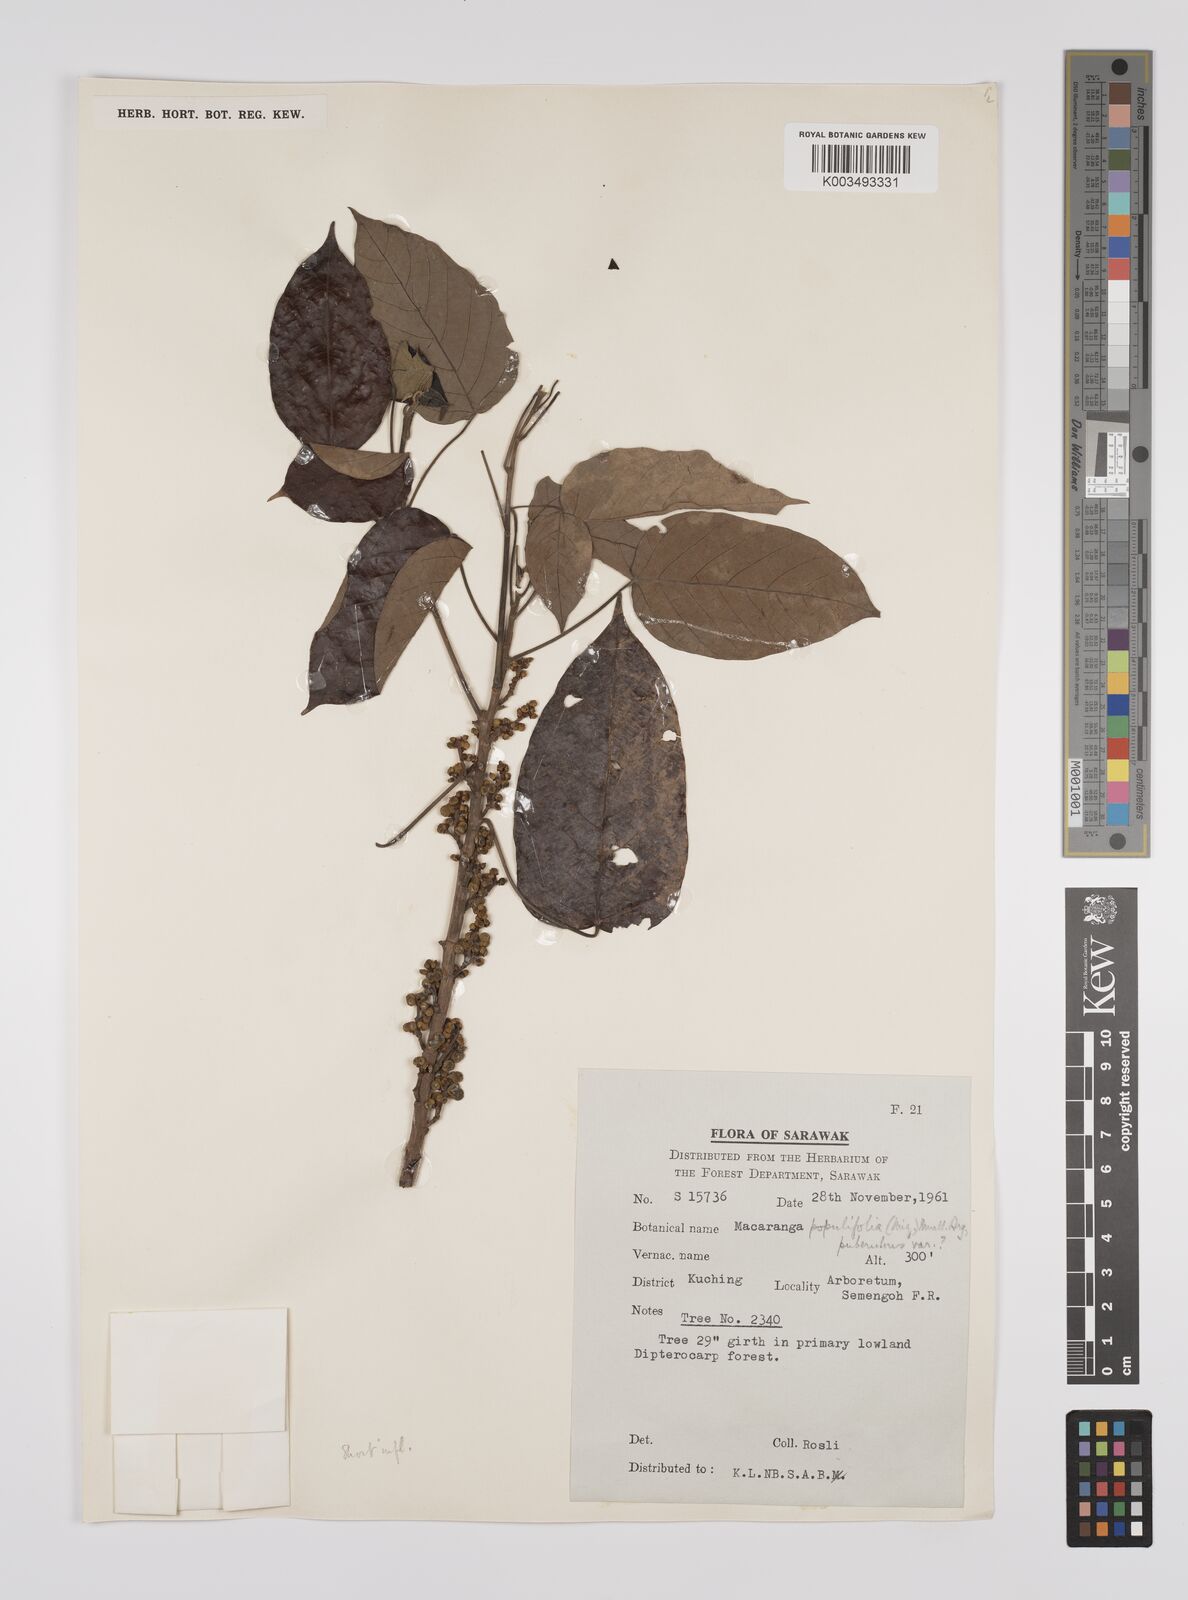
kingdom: Plantae
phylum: Tracheophyta
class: Magnoliopsida
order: Malpighiales
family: Euphorbiaceae
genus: Macaranga
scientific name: Macaranga conifera
